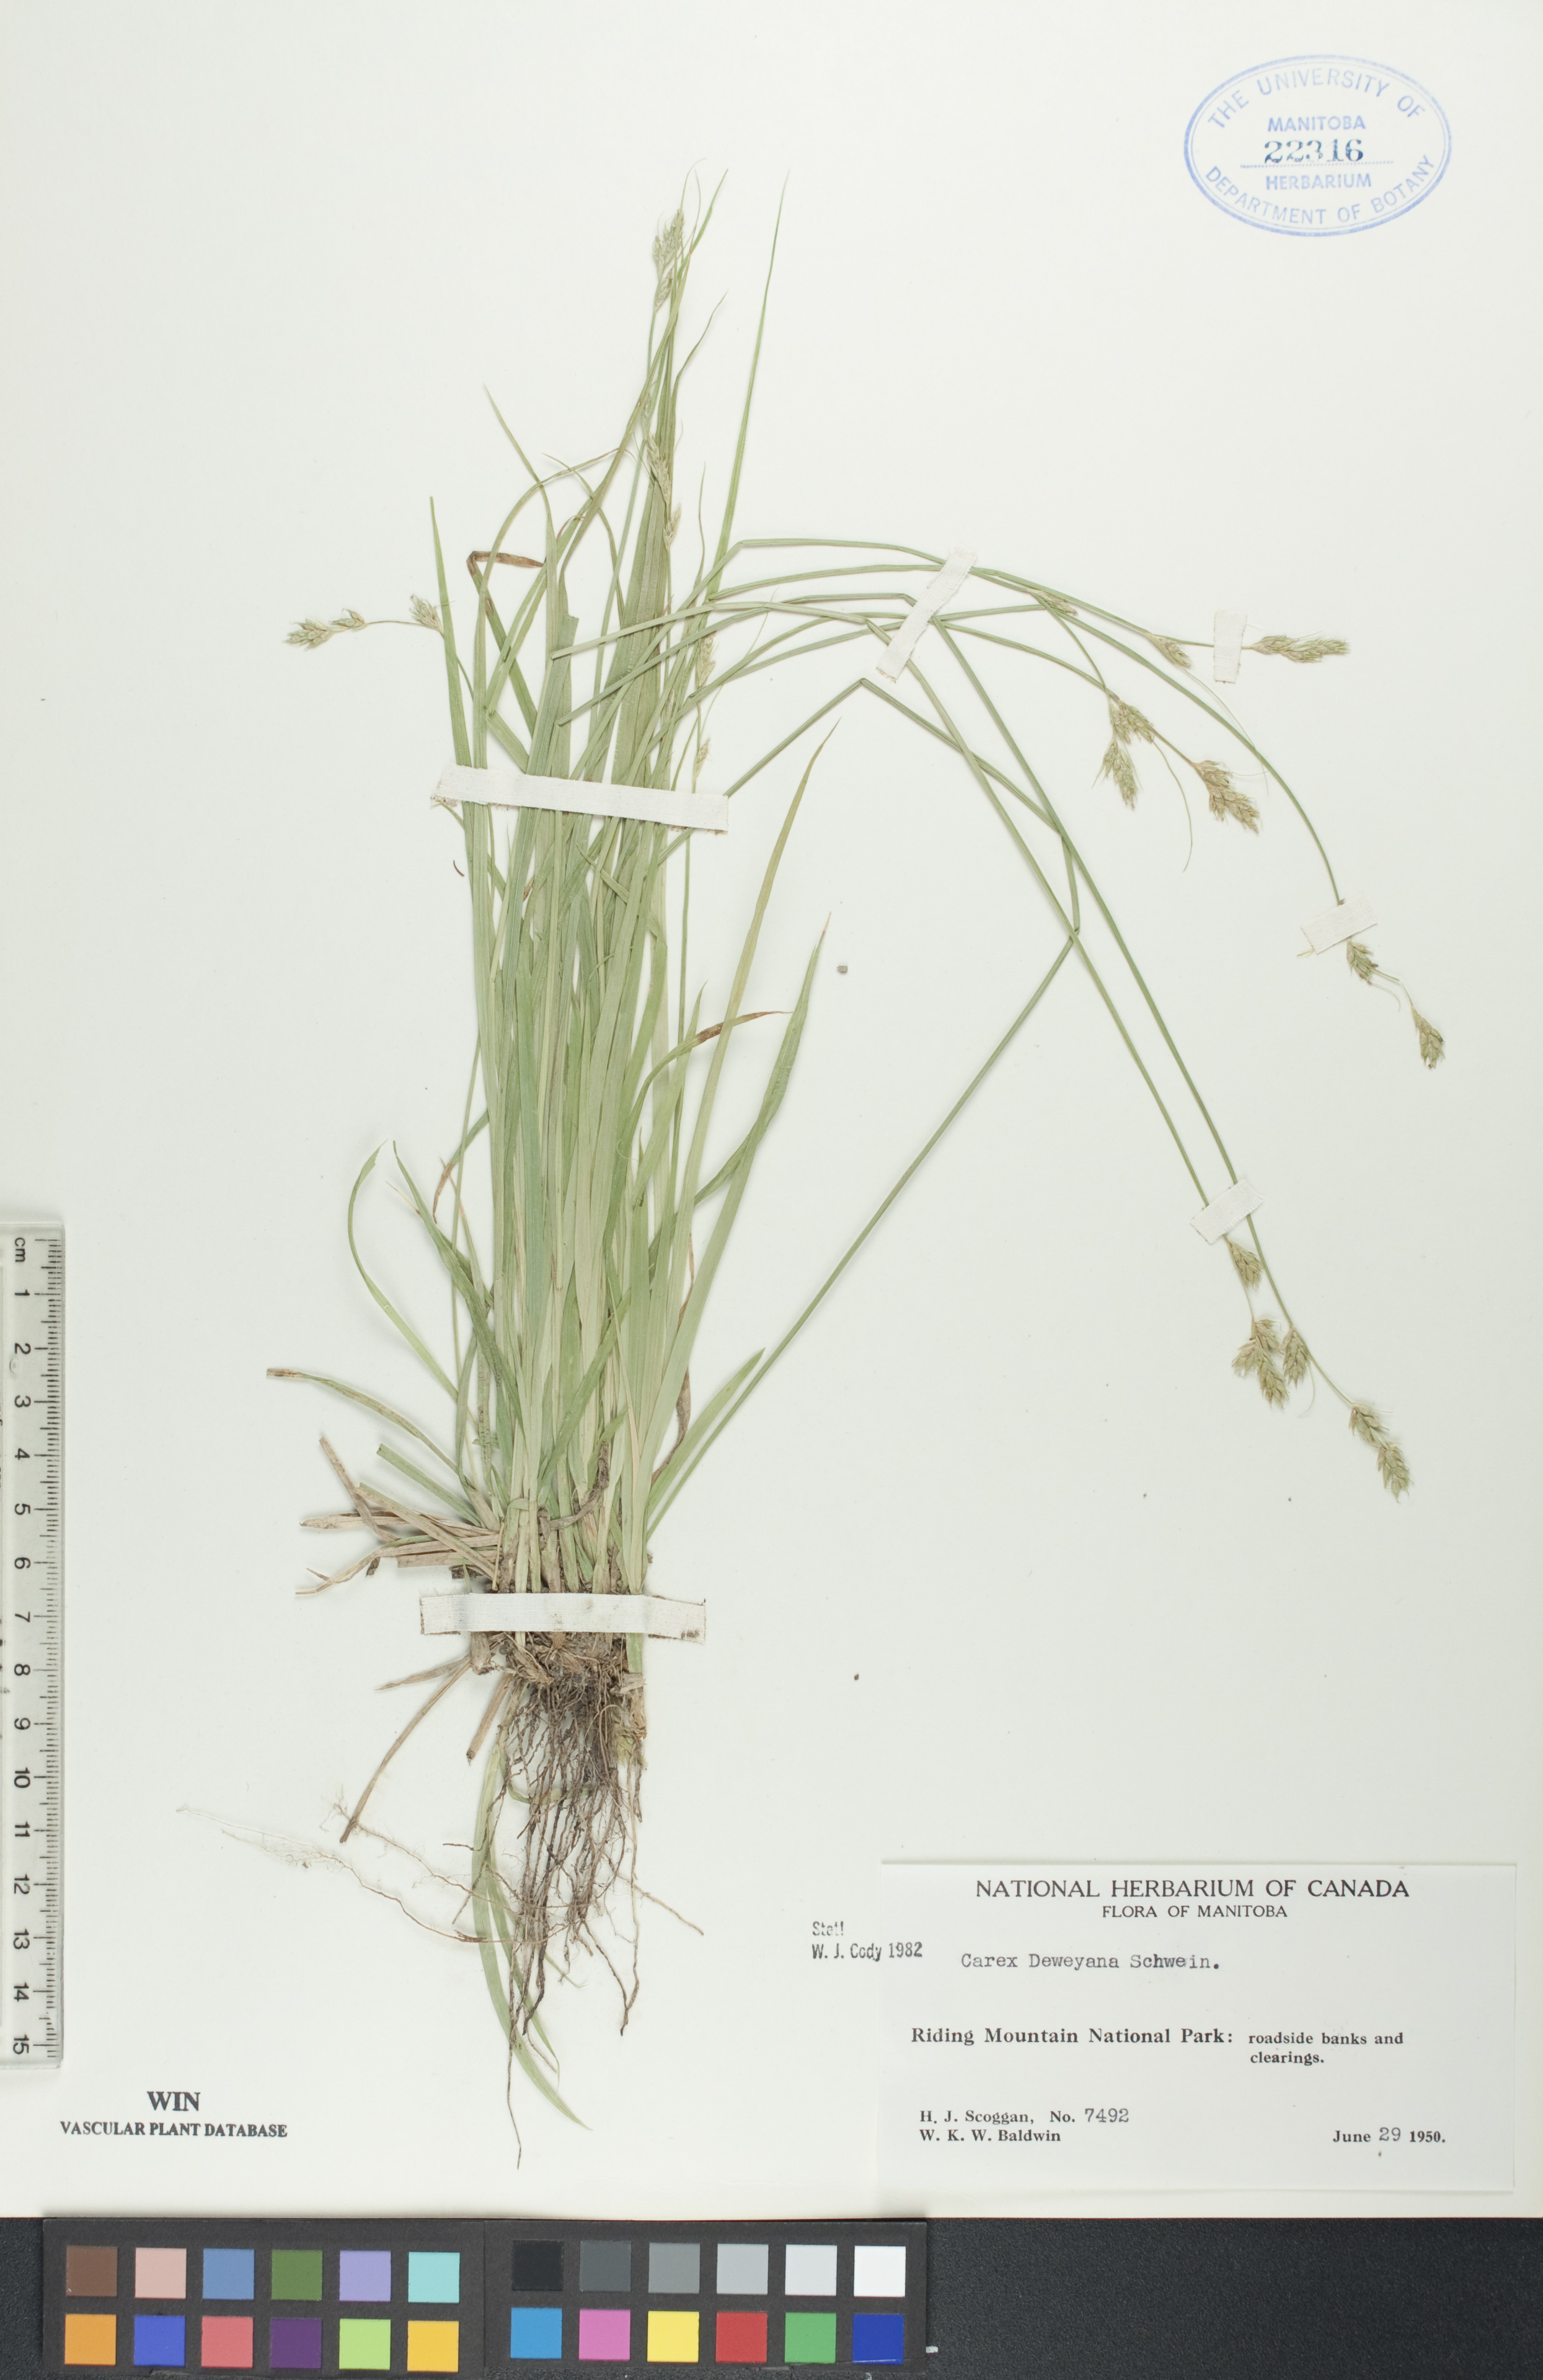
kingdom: Plantae
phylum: Tracheophyta
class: Liliopsida
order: Poales
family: Cyperaceae
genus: Carex
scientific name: Carex deweyana
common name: Dewey's sedge
